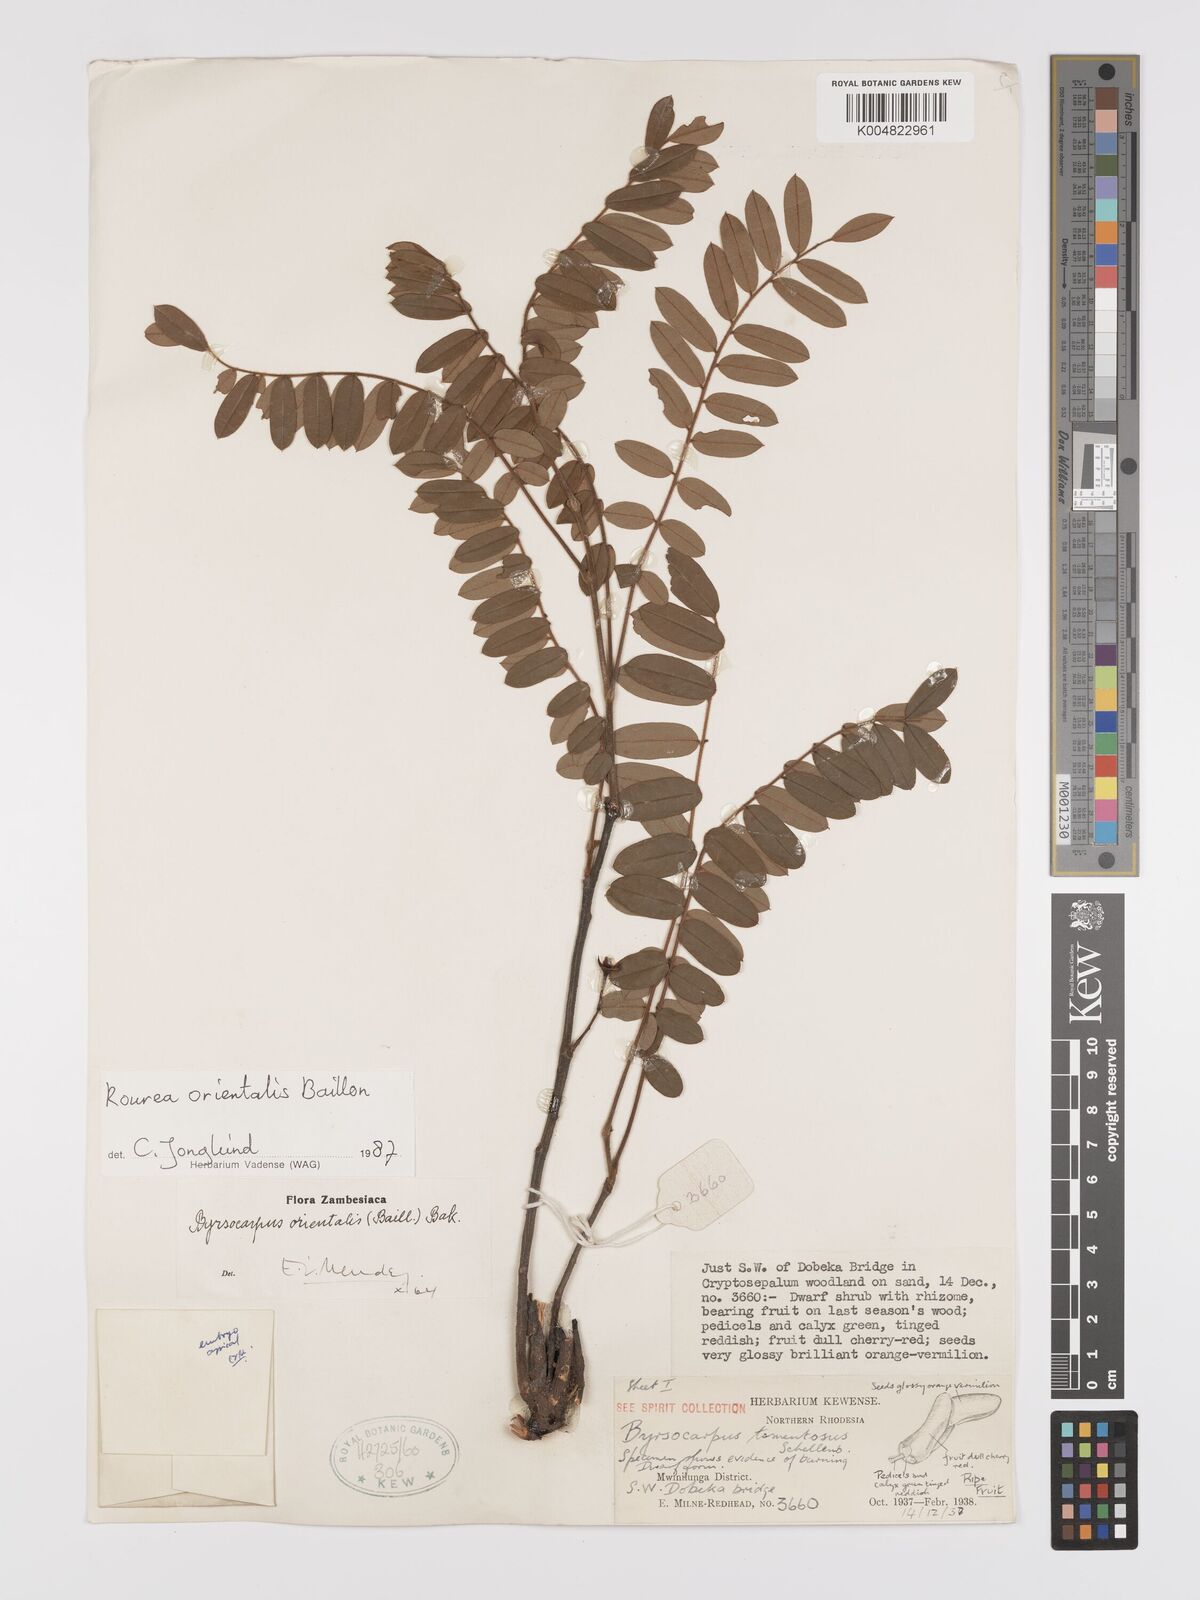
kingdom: Plantae
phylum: Tracheophyta
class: Magnoliopsida
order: Oxalidales
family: Connaraceae
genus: Rourea
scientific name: Rourea orientalis
